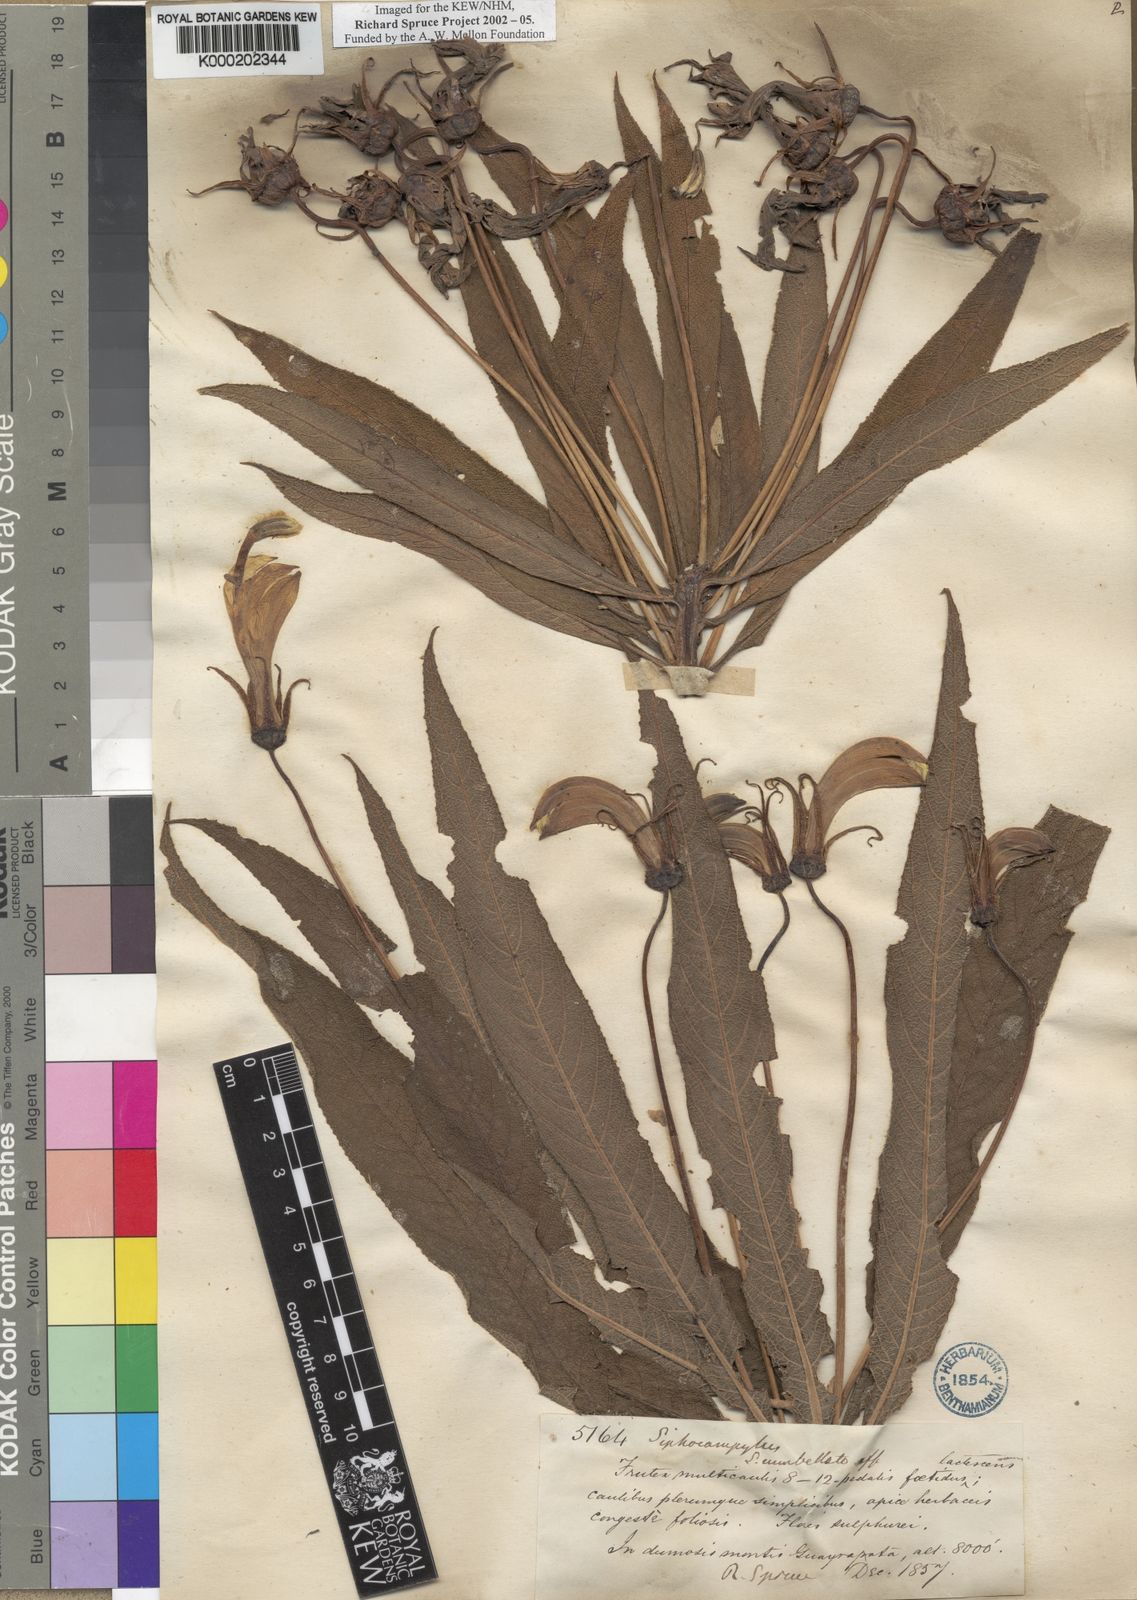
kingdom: Plantae
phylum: Tracheophyta
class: Magnoliopsida
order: Asterales
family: Campanulaceae
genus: Siphocampylus
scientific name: Siphocampylus giganteus
